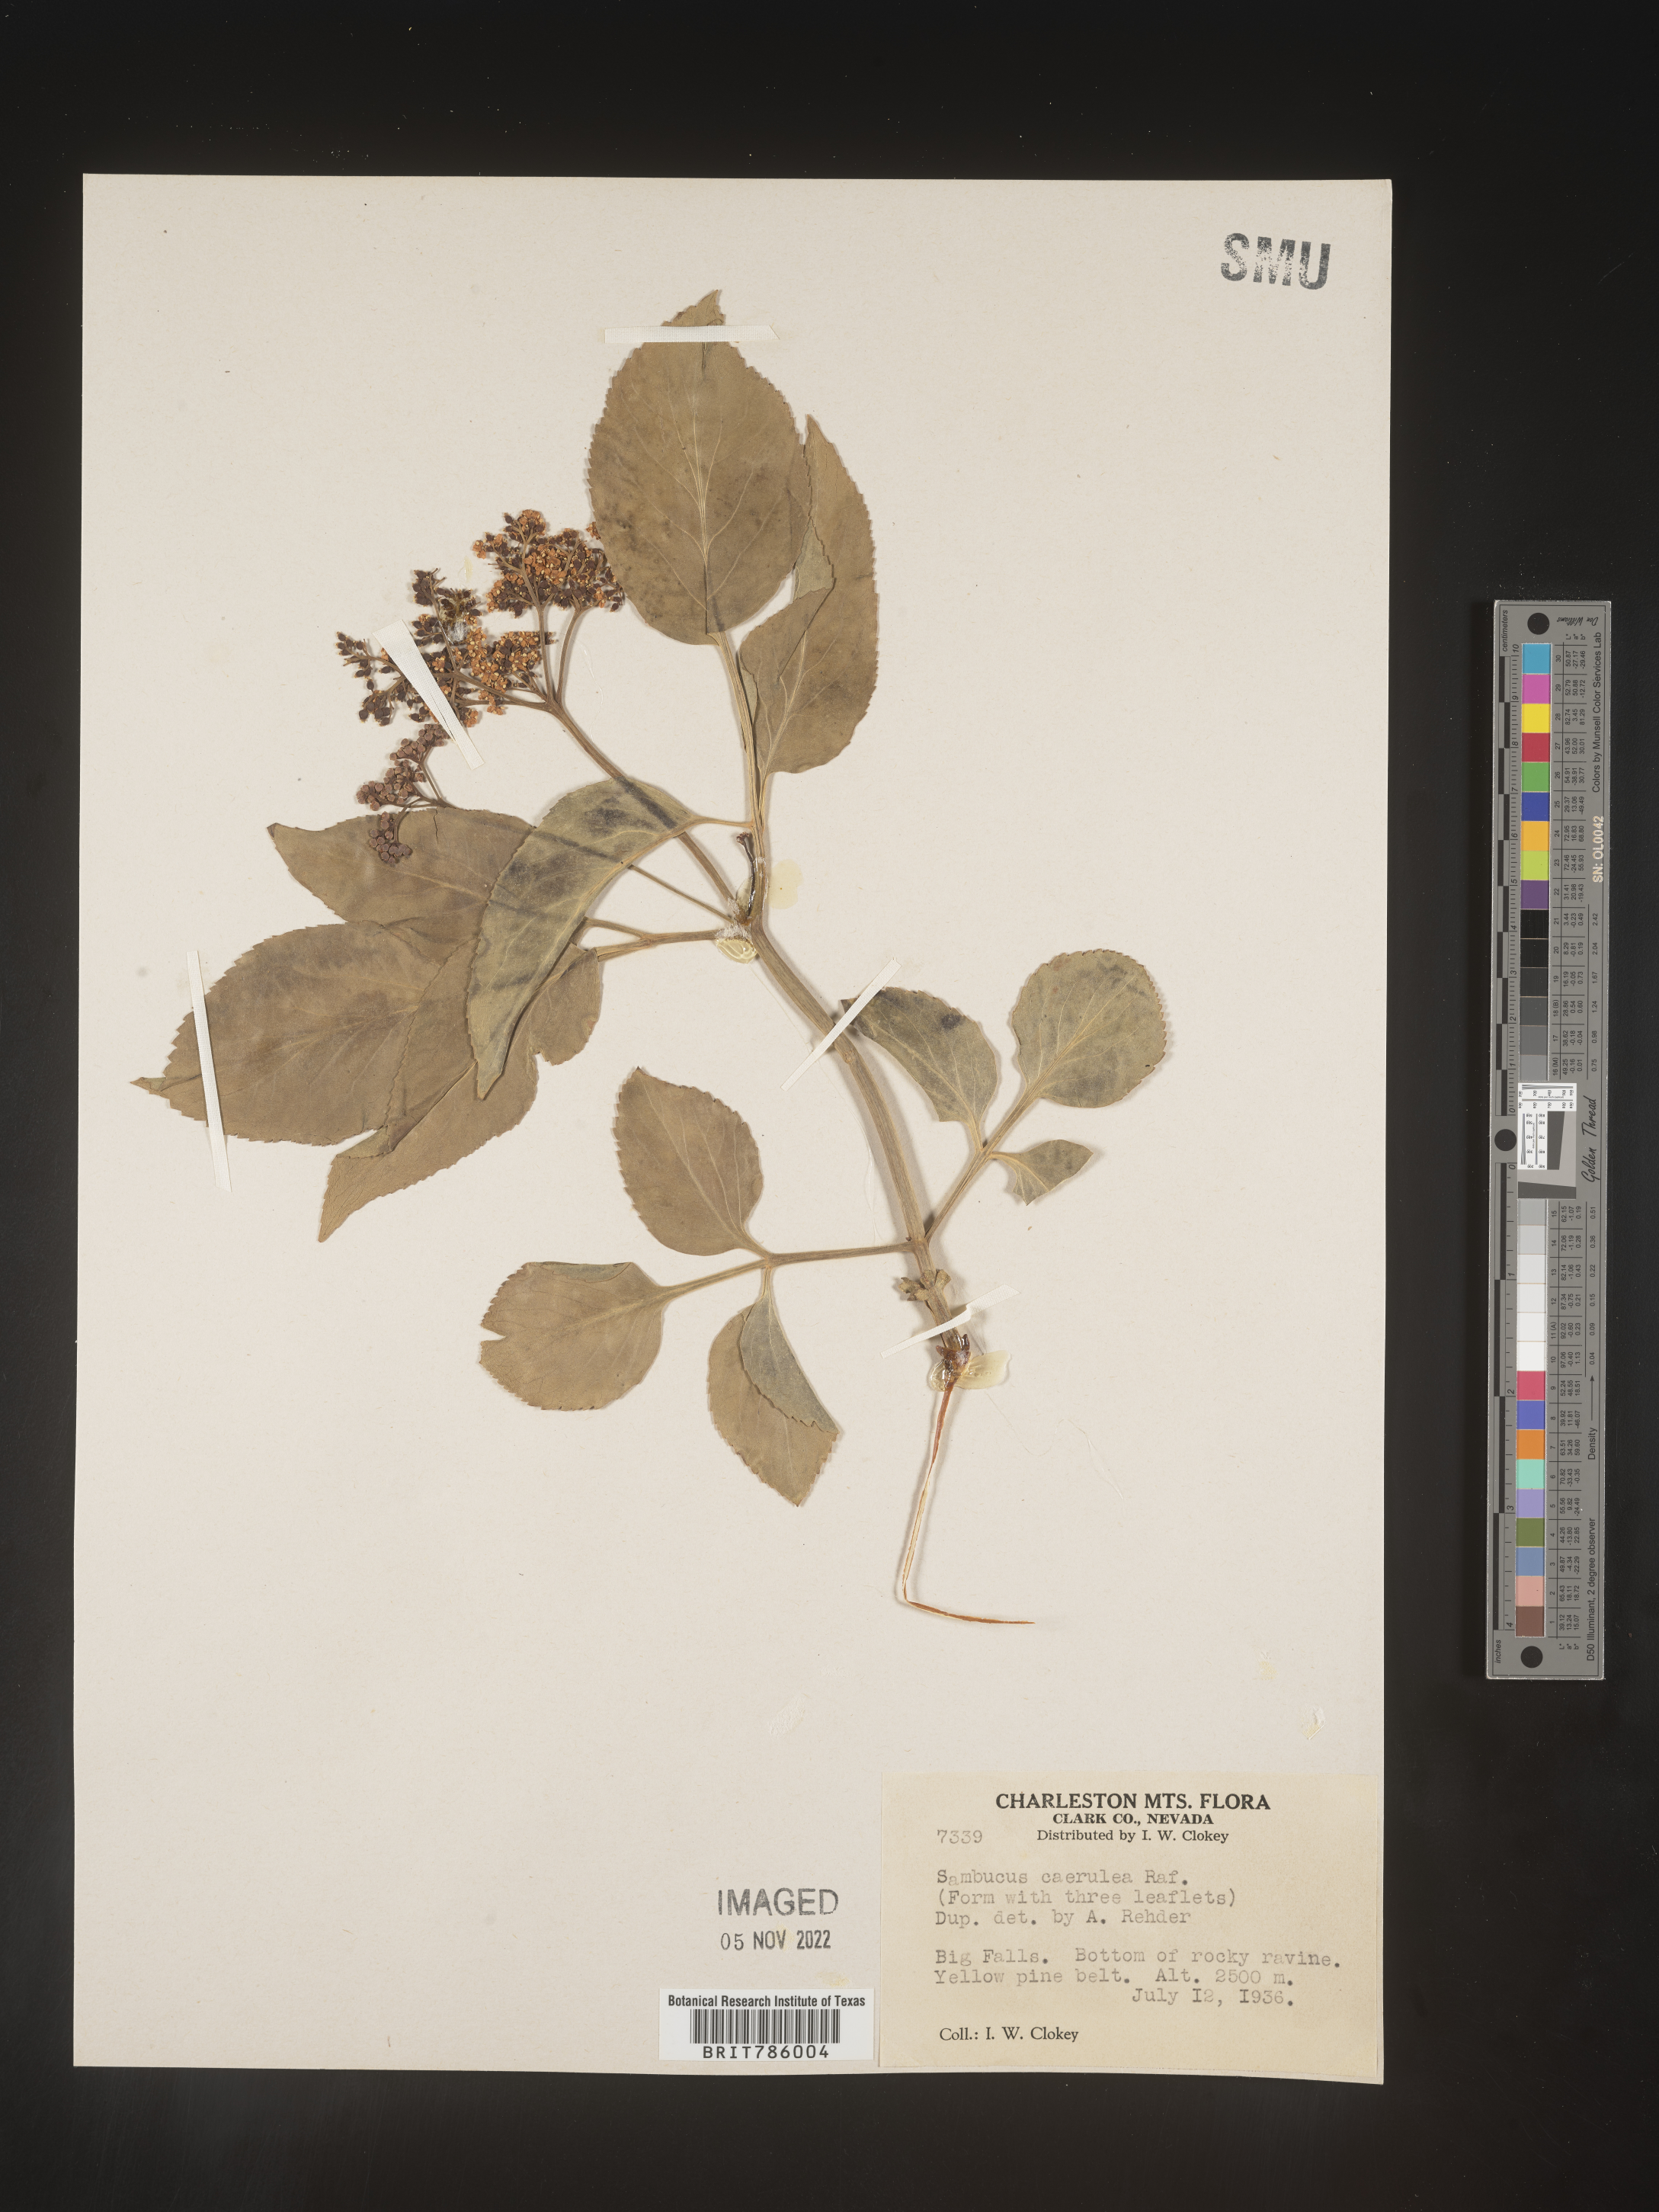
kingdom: Plantae
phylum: Tracheophyta
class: Magnoliopsida
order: Dipsacales
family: Viburnaceae
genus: Sambucus
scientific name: Sambucus caerulea
